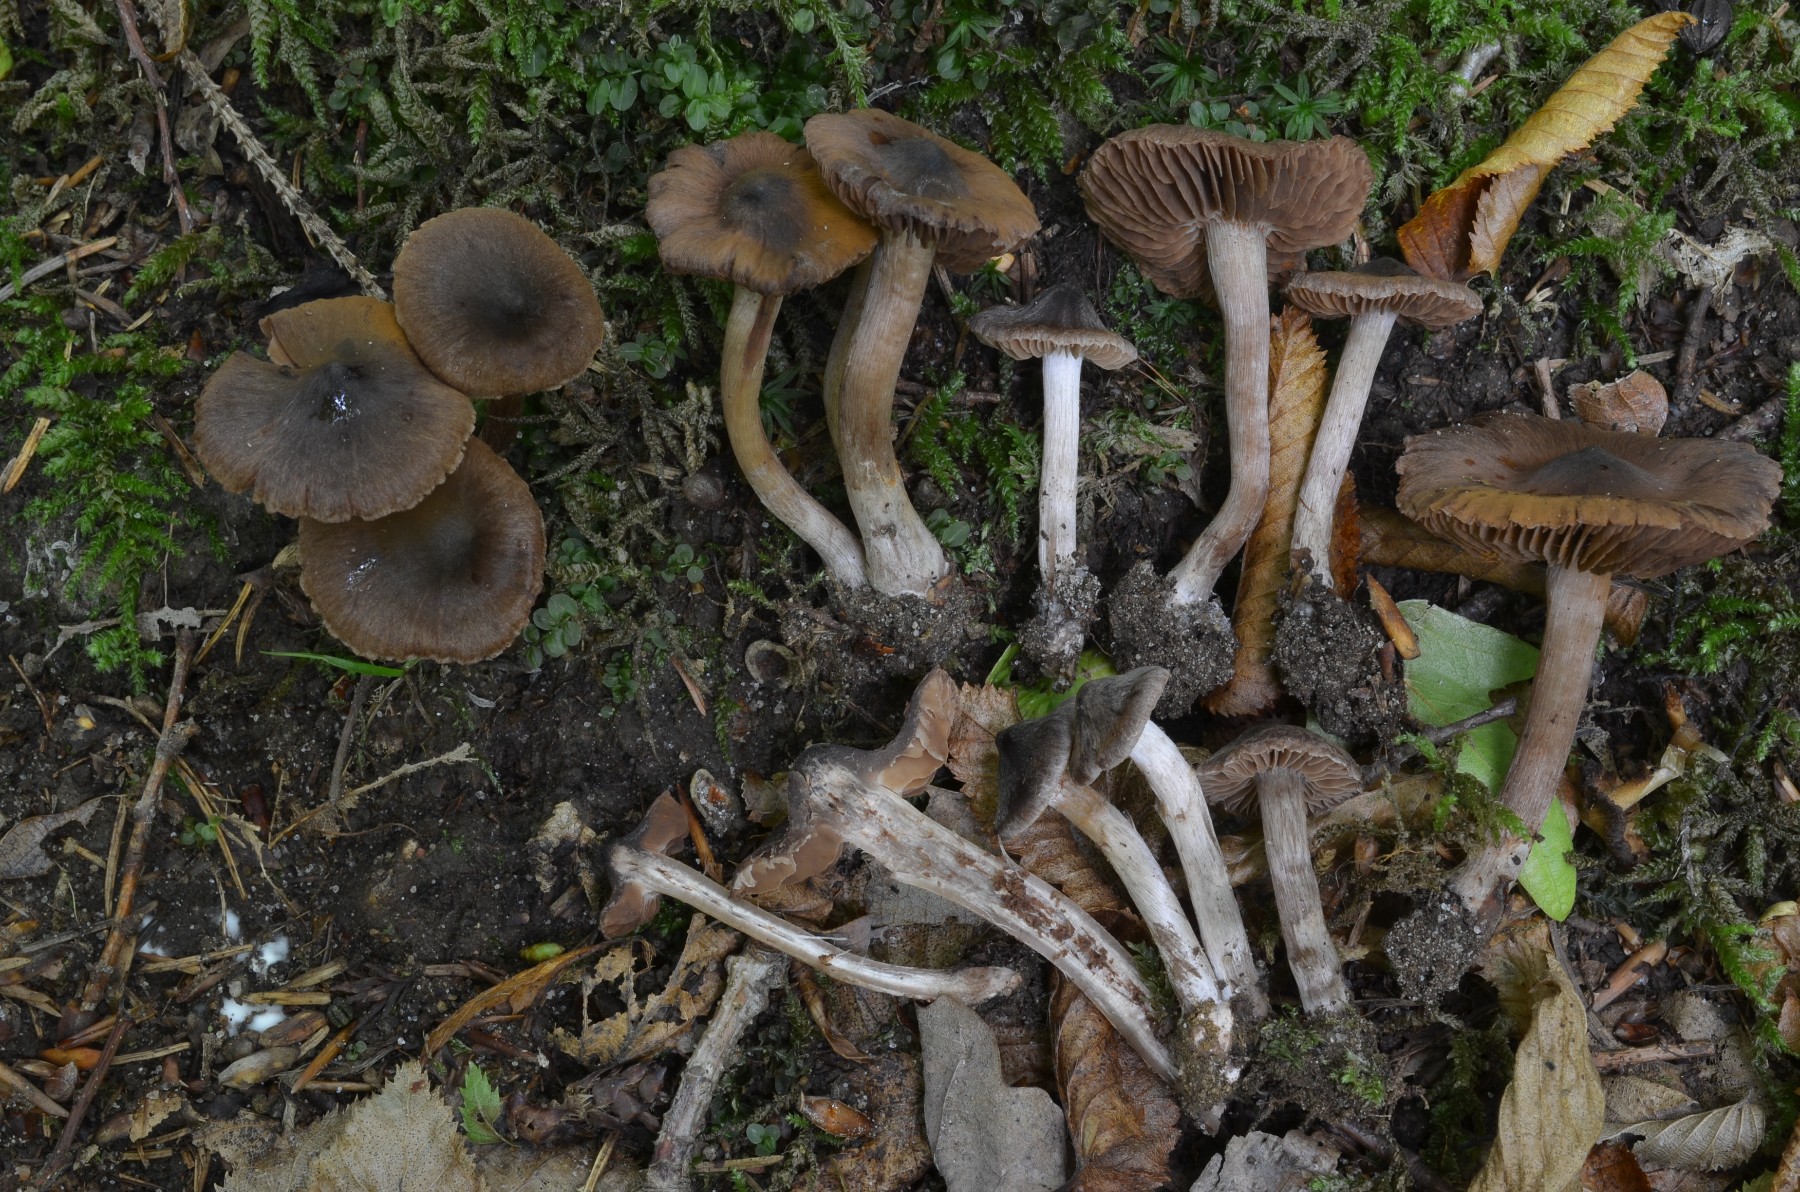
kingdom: Fungi
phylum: Basidiomycota
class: Agaricomycetes
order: Agaricales
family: Cortinariaceae
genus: Cortinarius
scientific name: Cortinarius psammocola
